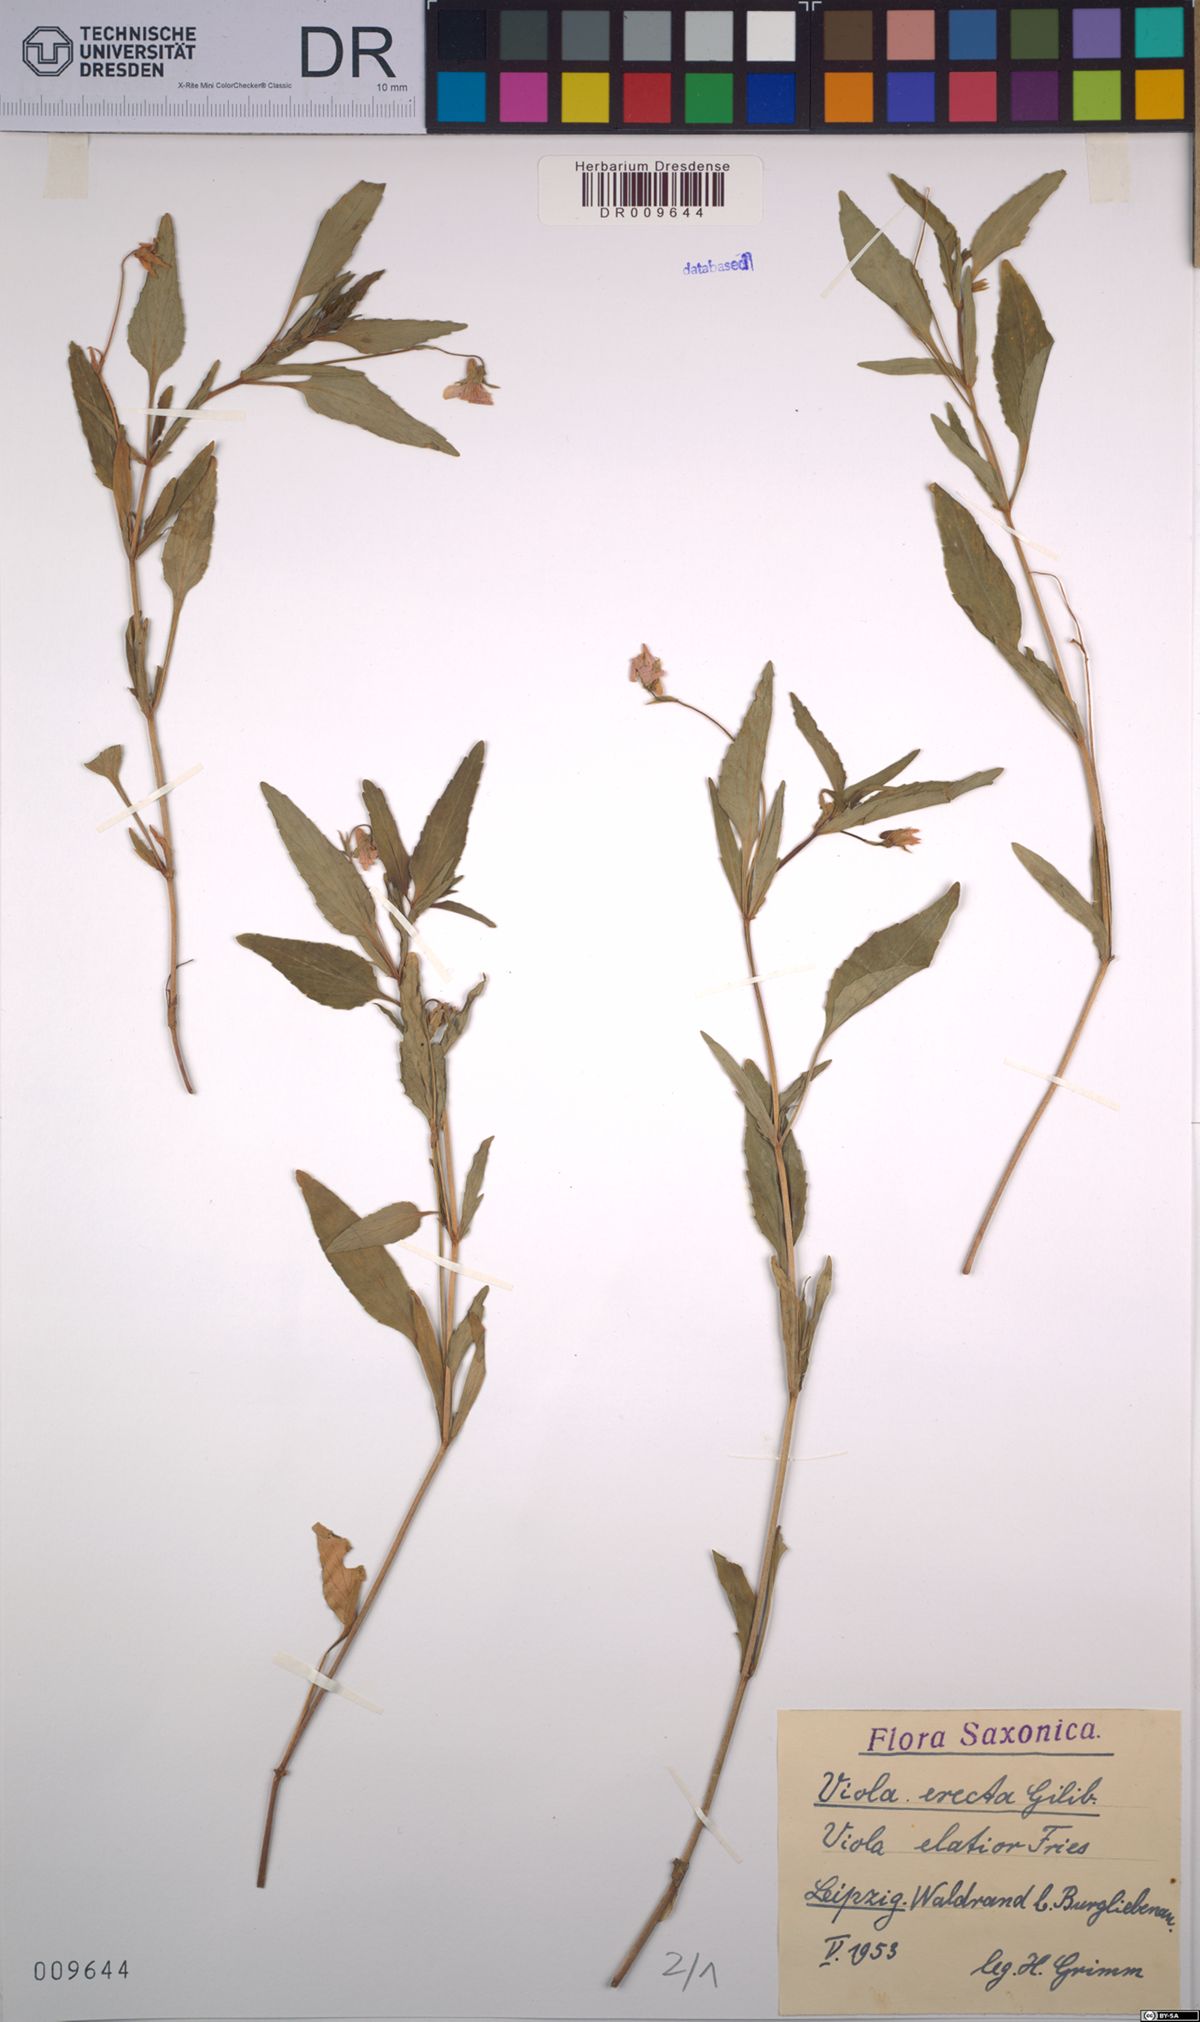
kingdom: Plantae
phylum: Tracheophyta
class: Magnoliopsida
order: Malpighiales
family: Violaceae
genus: Viola
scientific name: Viola elatior
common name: Tall violet
